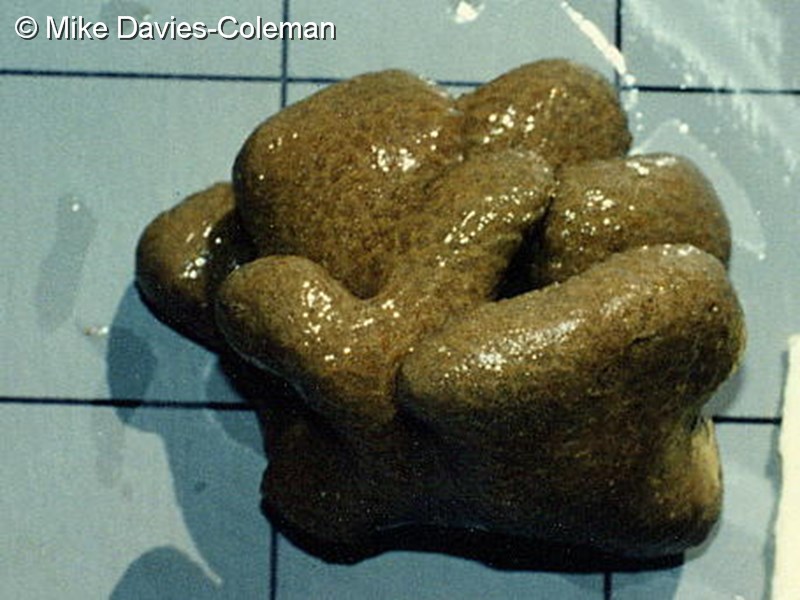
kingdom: Animalia
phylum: Chordata
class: Ascidiacea
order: Aplousobranchia
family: Polyclinidae
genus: Aplidium
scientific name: Aplidium
